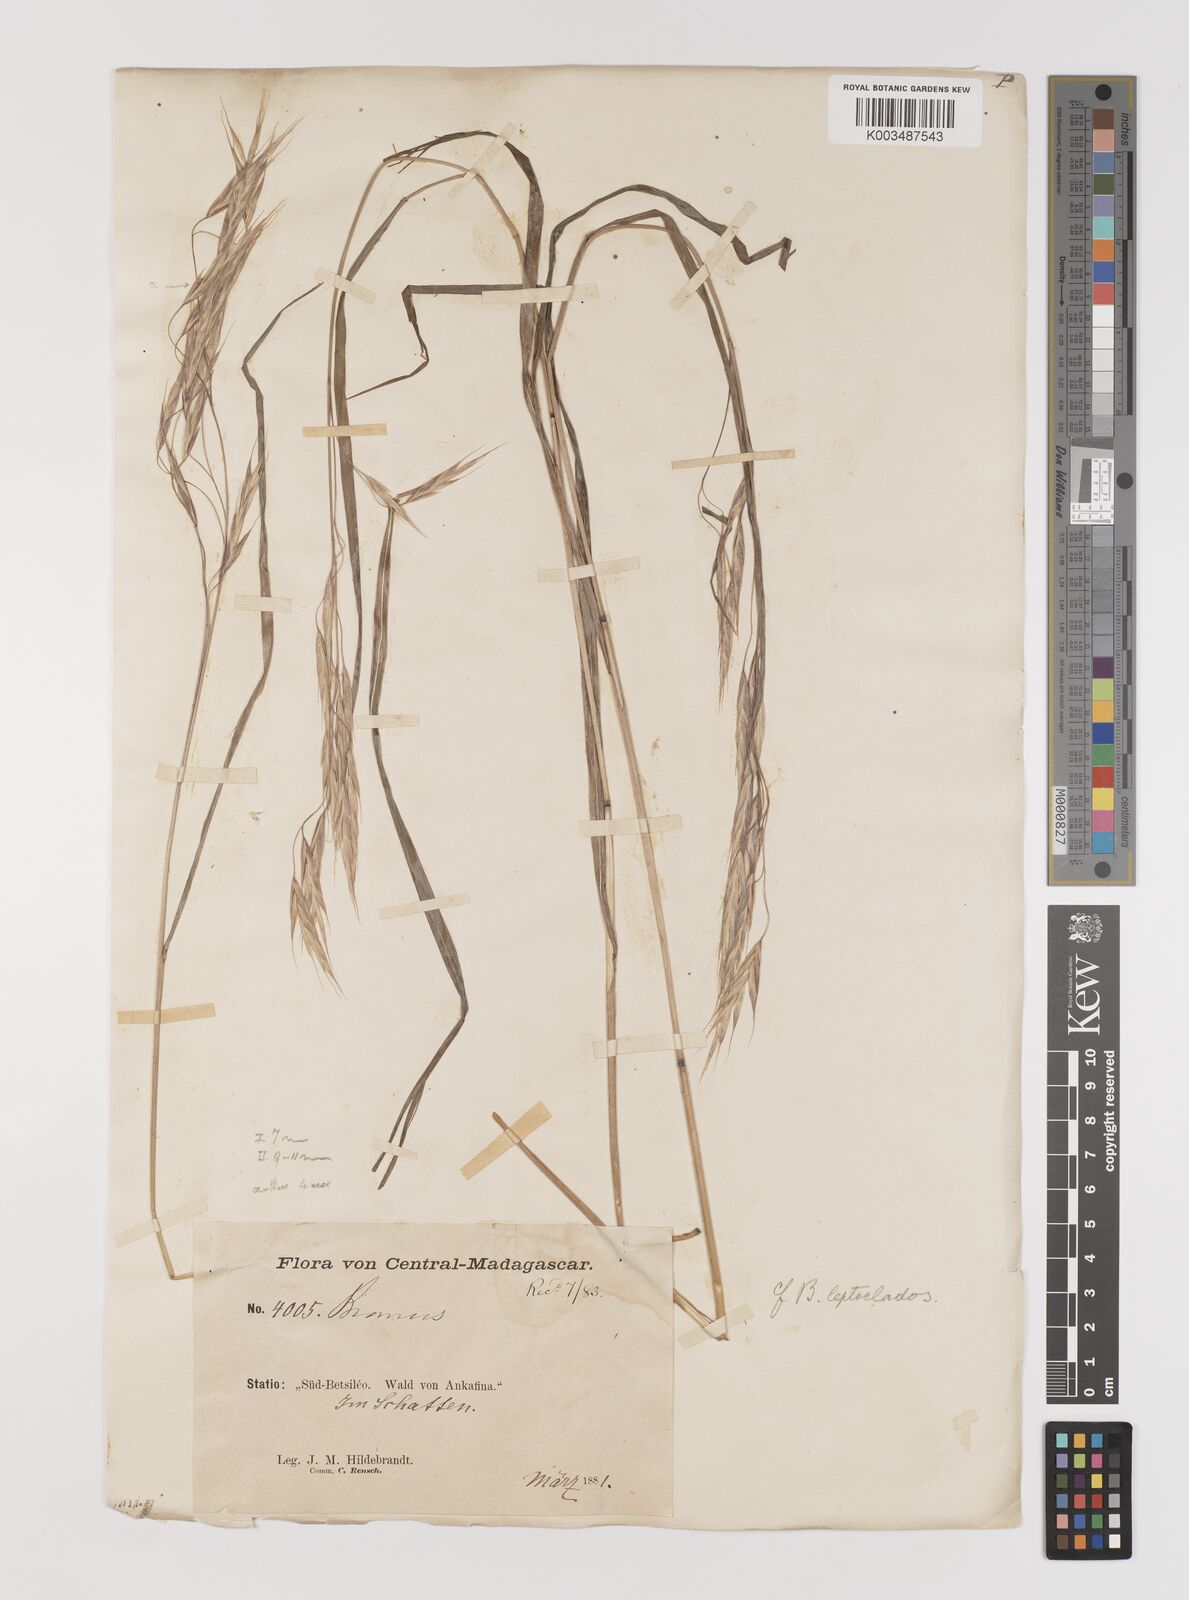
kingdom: Plantae
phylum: Tracheophyta
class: Liliopsida
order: Poales
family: Poaceae
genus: Bromus
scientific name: Bromus leptoclados
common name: Mountain bromegrass
